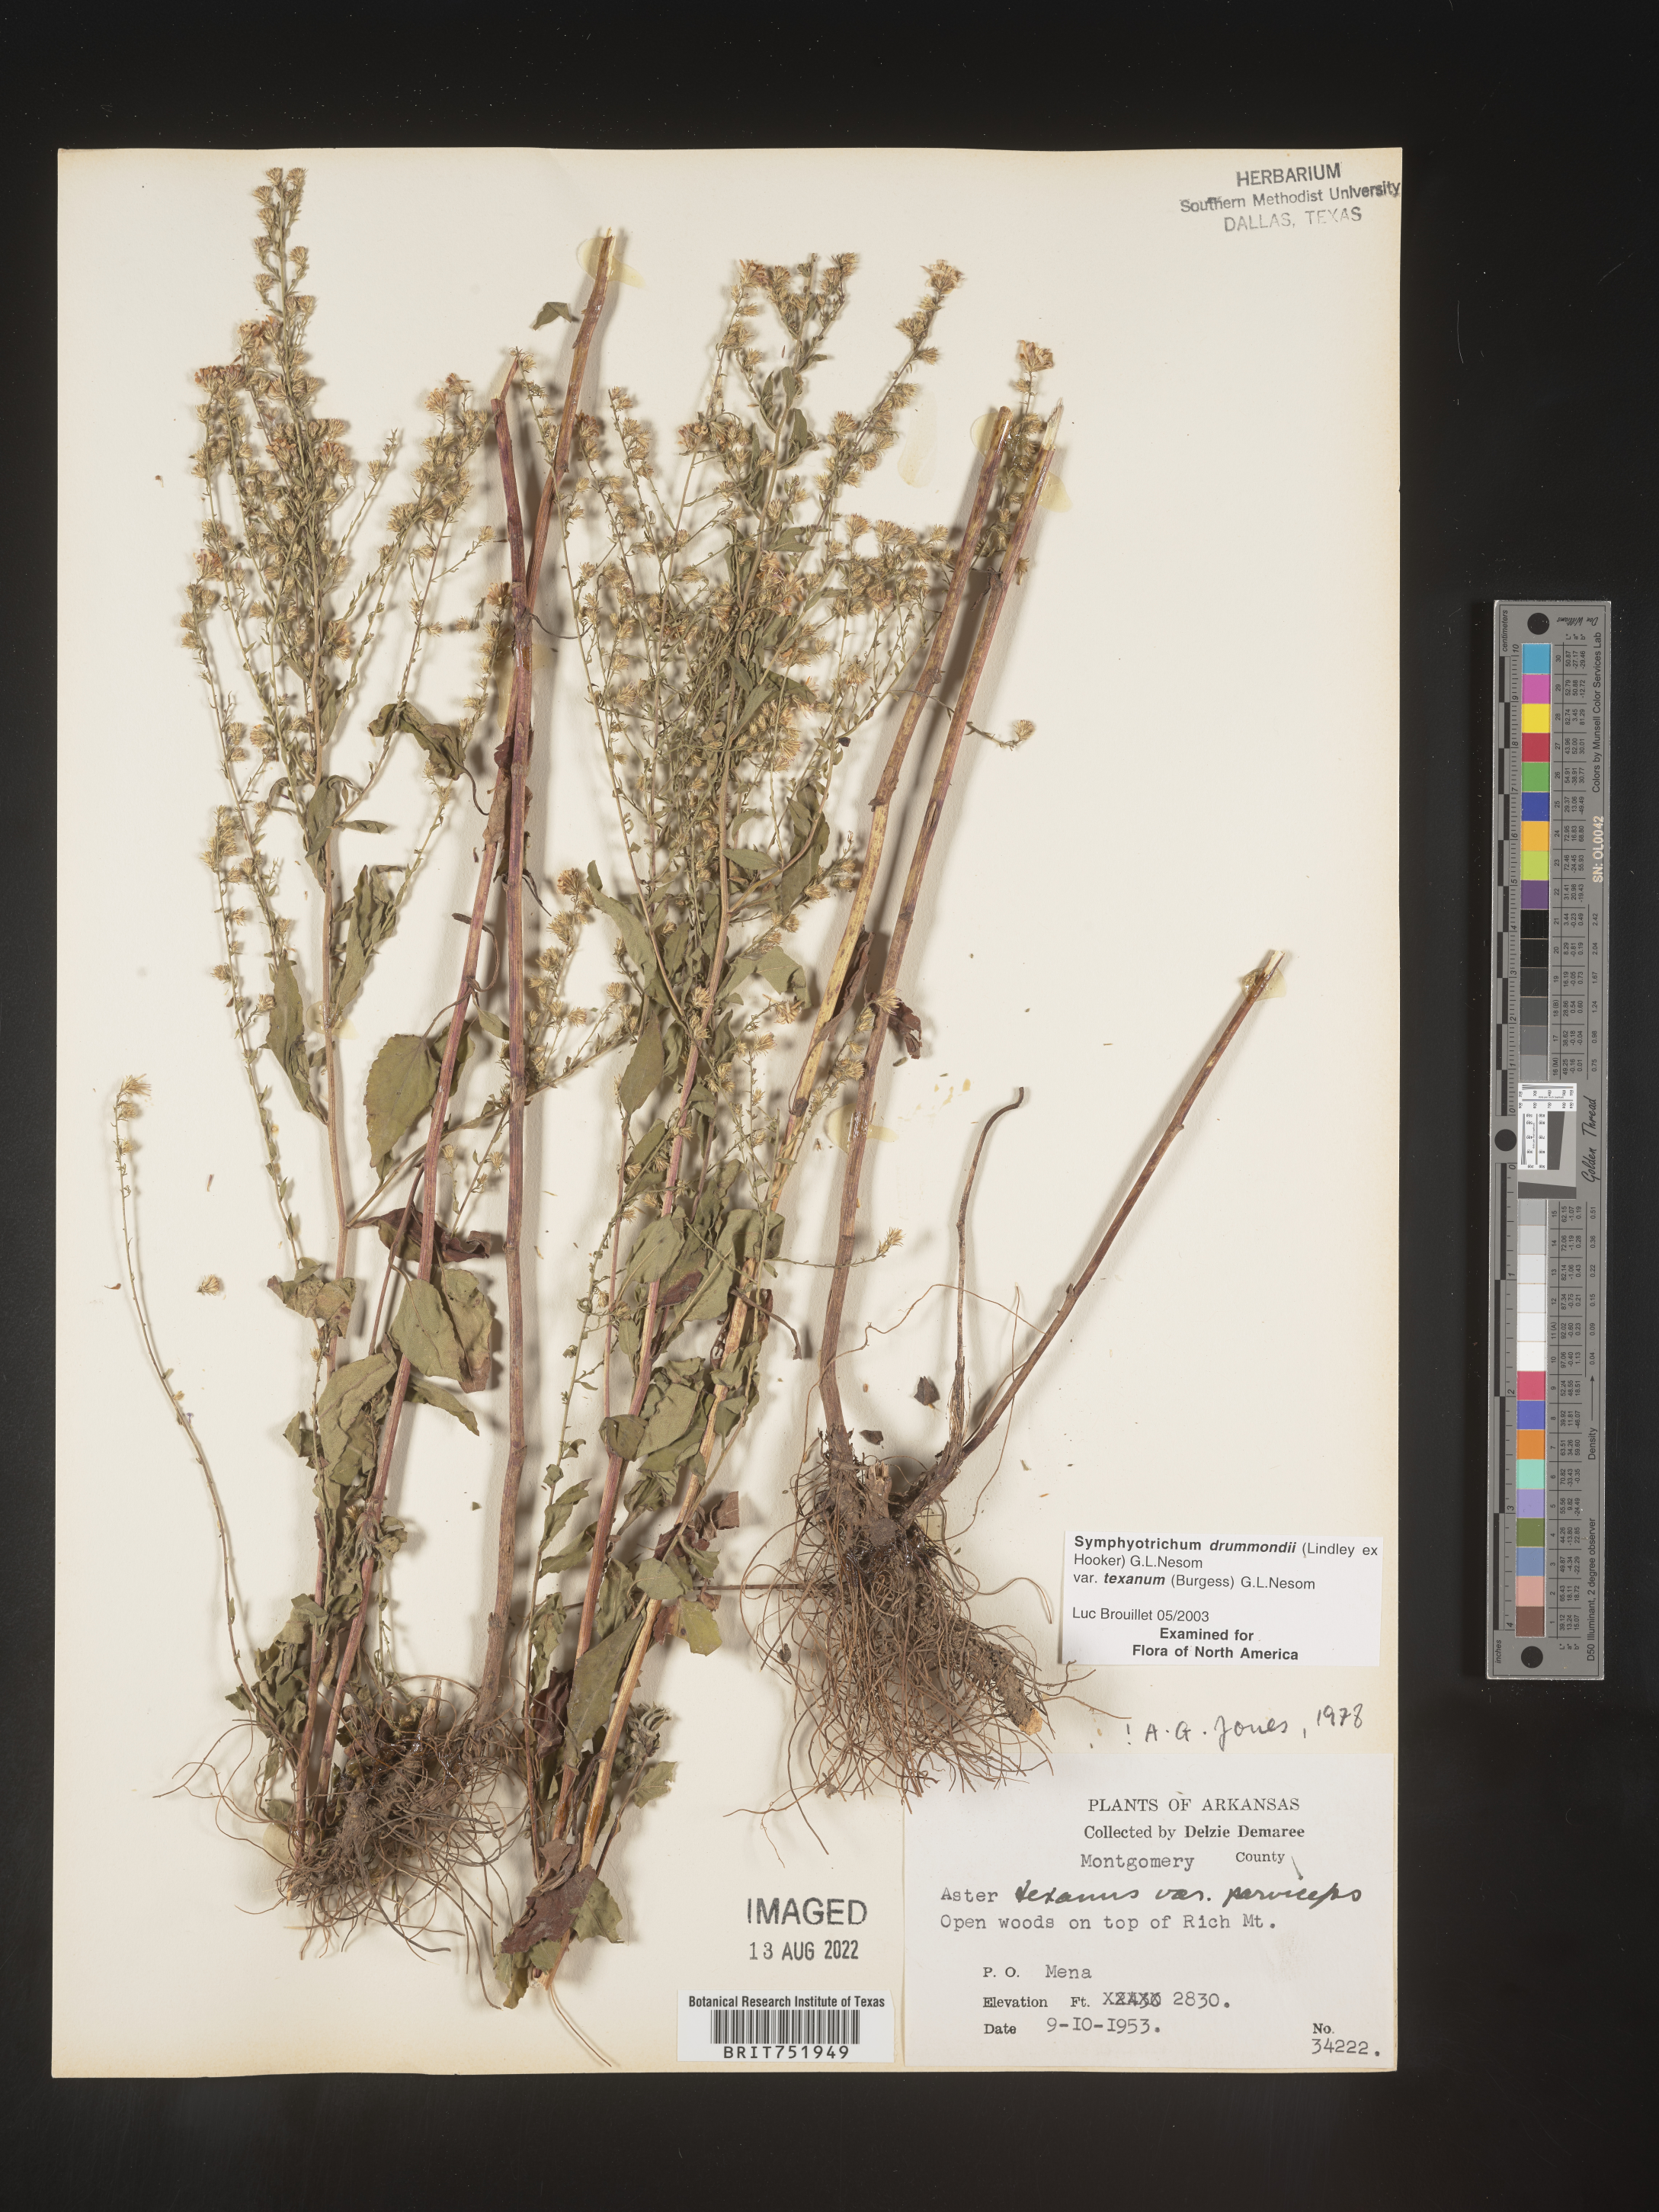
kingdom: Plantae
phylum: Tracheophyta
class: Magnoliopsida
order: Asterales
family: Asteraceae
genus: Symphyotrichum
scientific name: Symphyotrichum drummondii
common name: Drummond's aster
